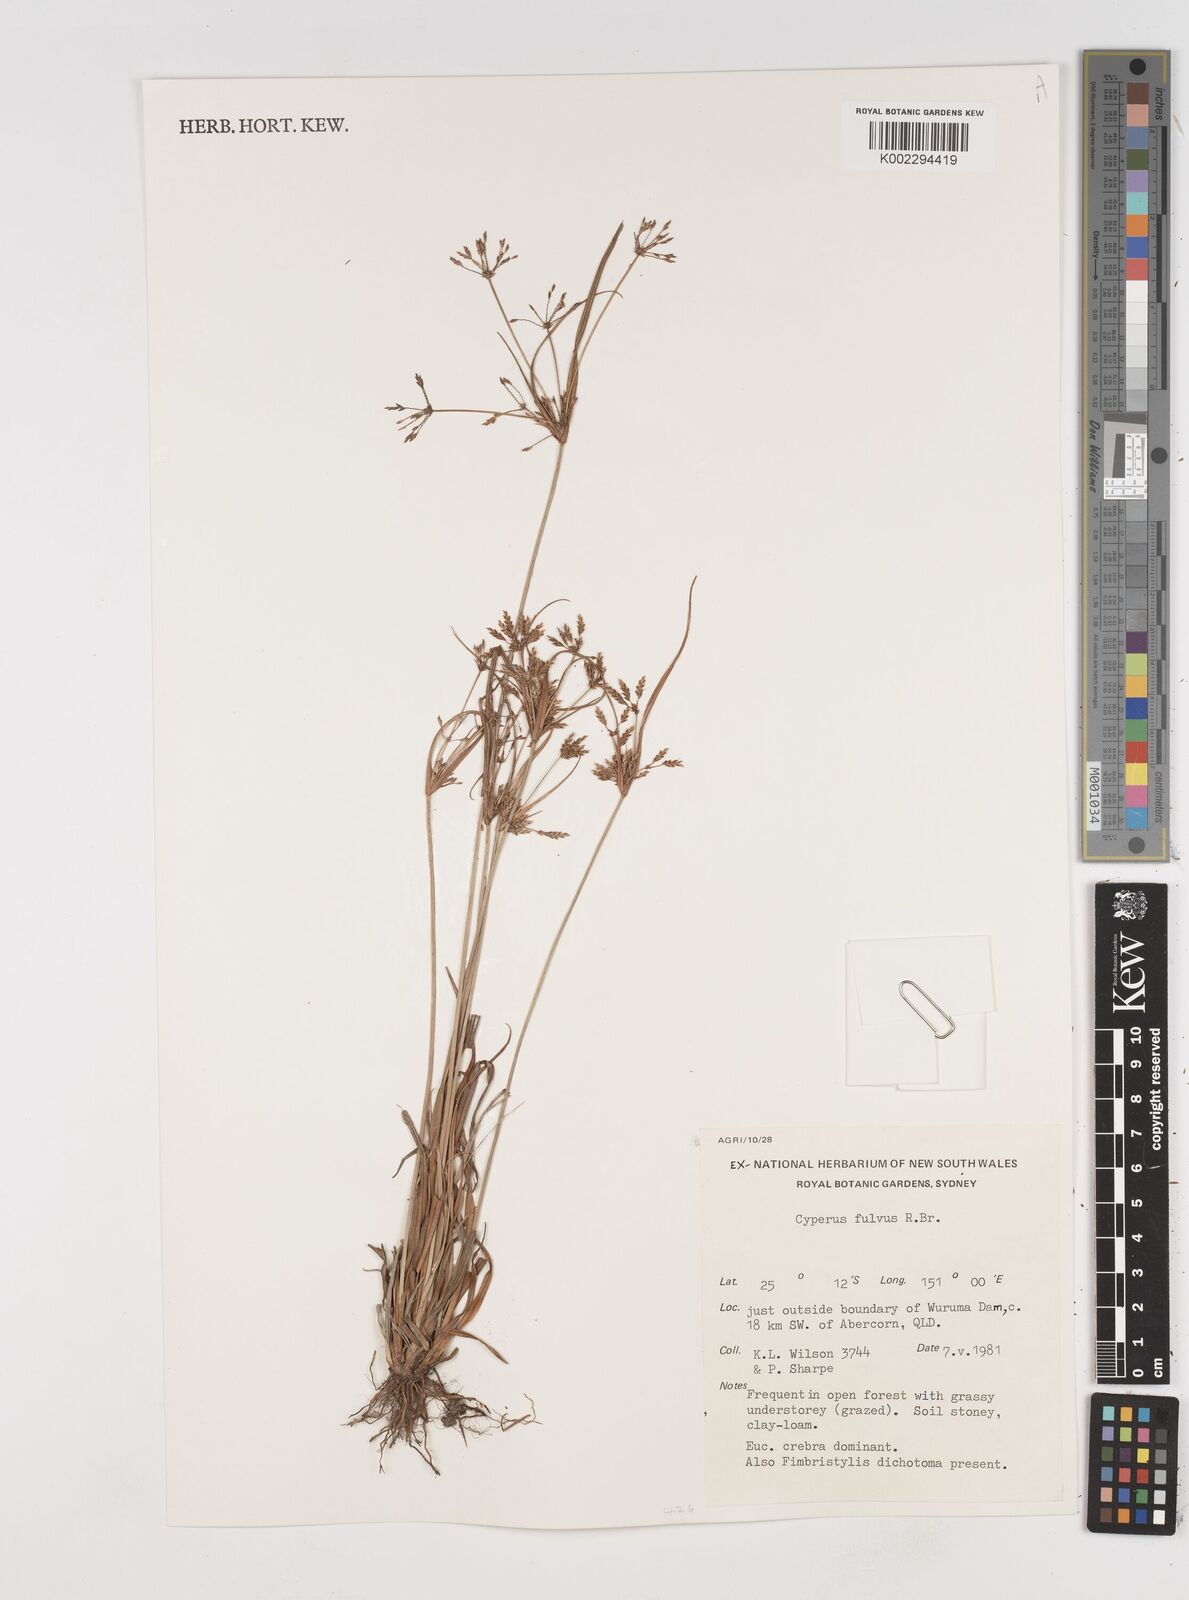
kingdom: Plantae
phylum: Tracheophyta
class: Liliopsida
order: Poales
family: Cyperaceae
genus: Cyperus
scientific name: Cyperus fulvus
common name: Sticky sedge
